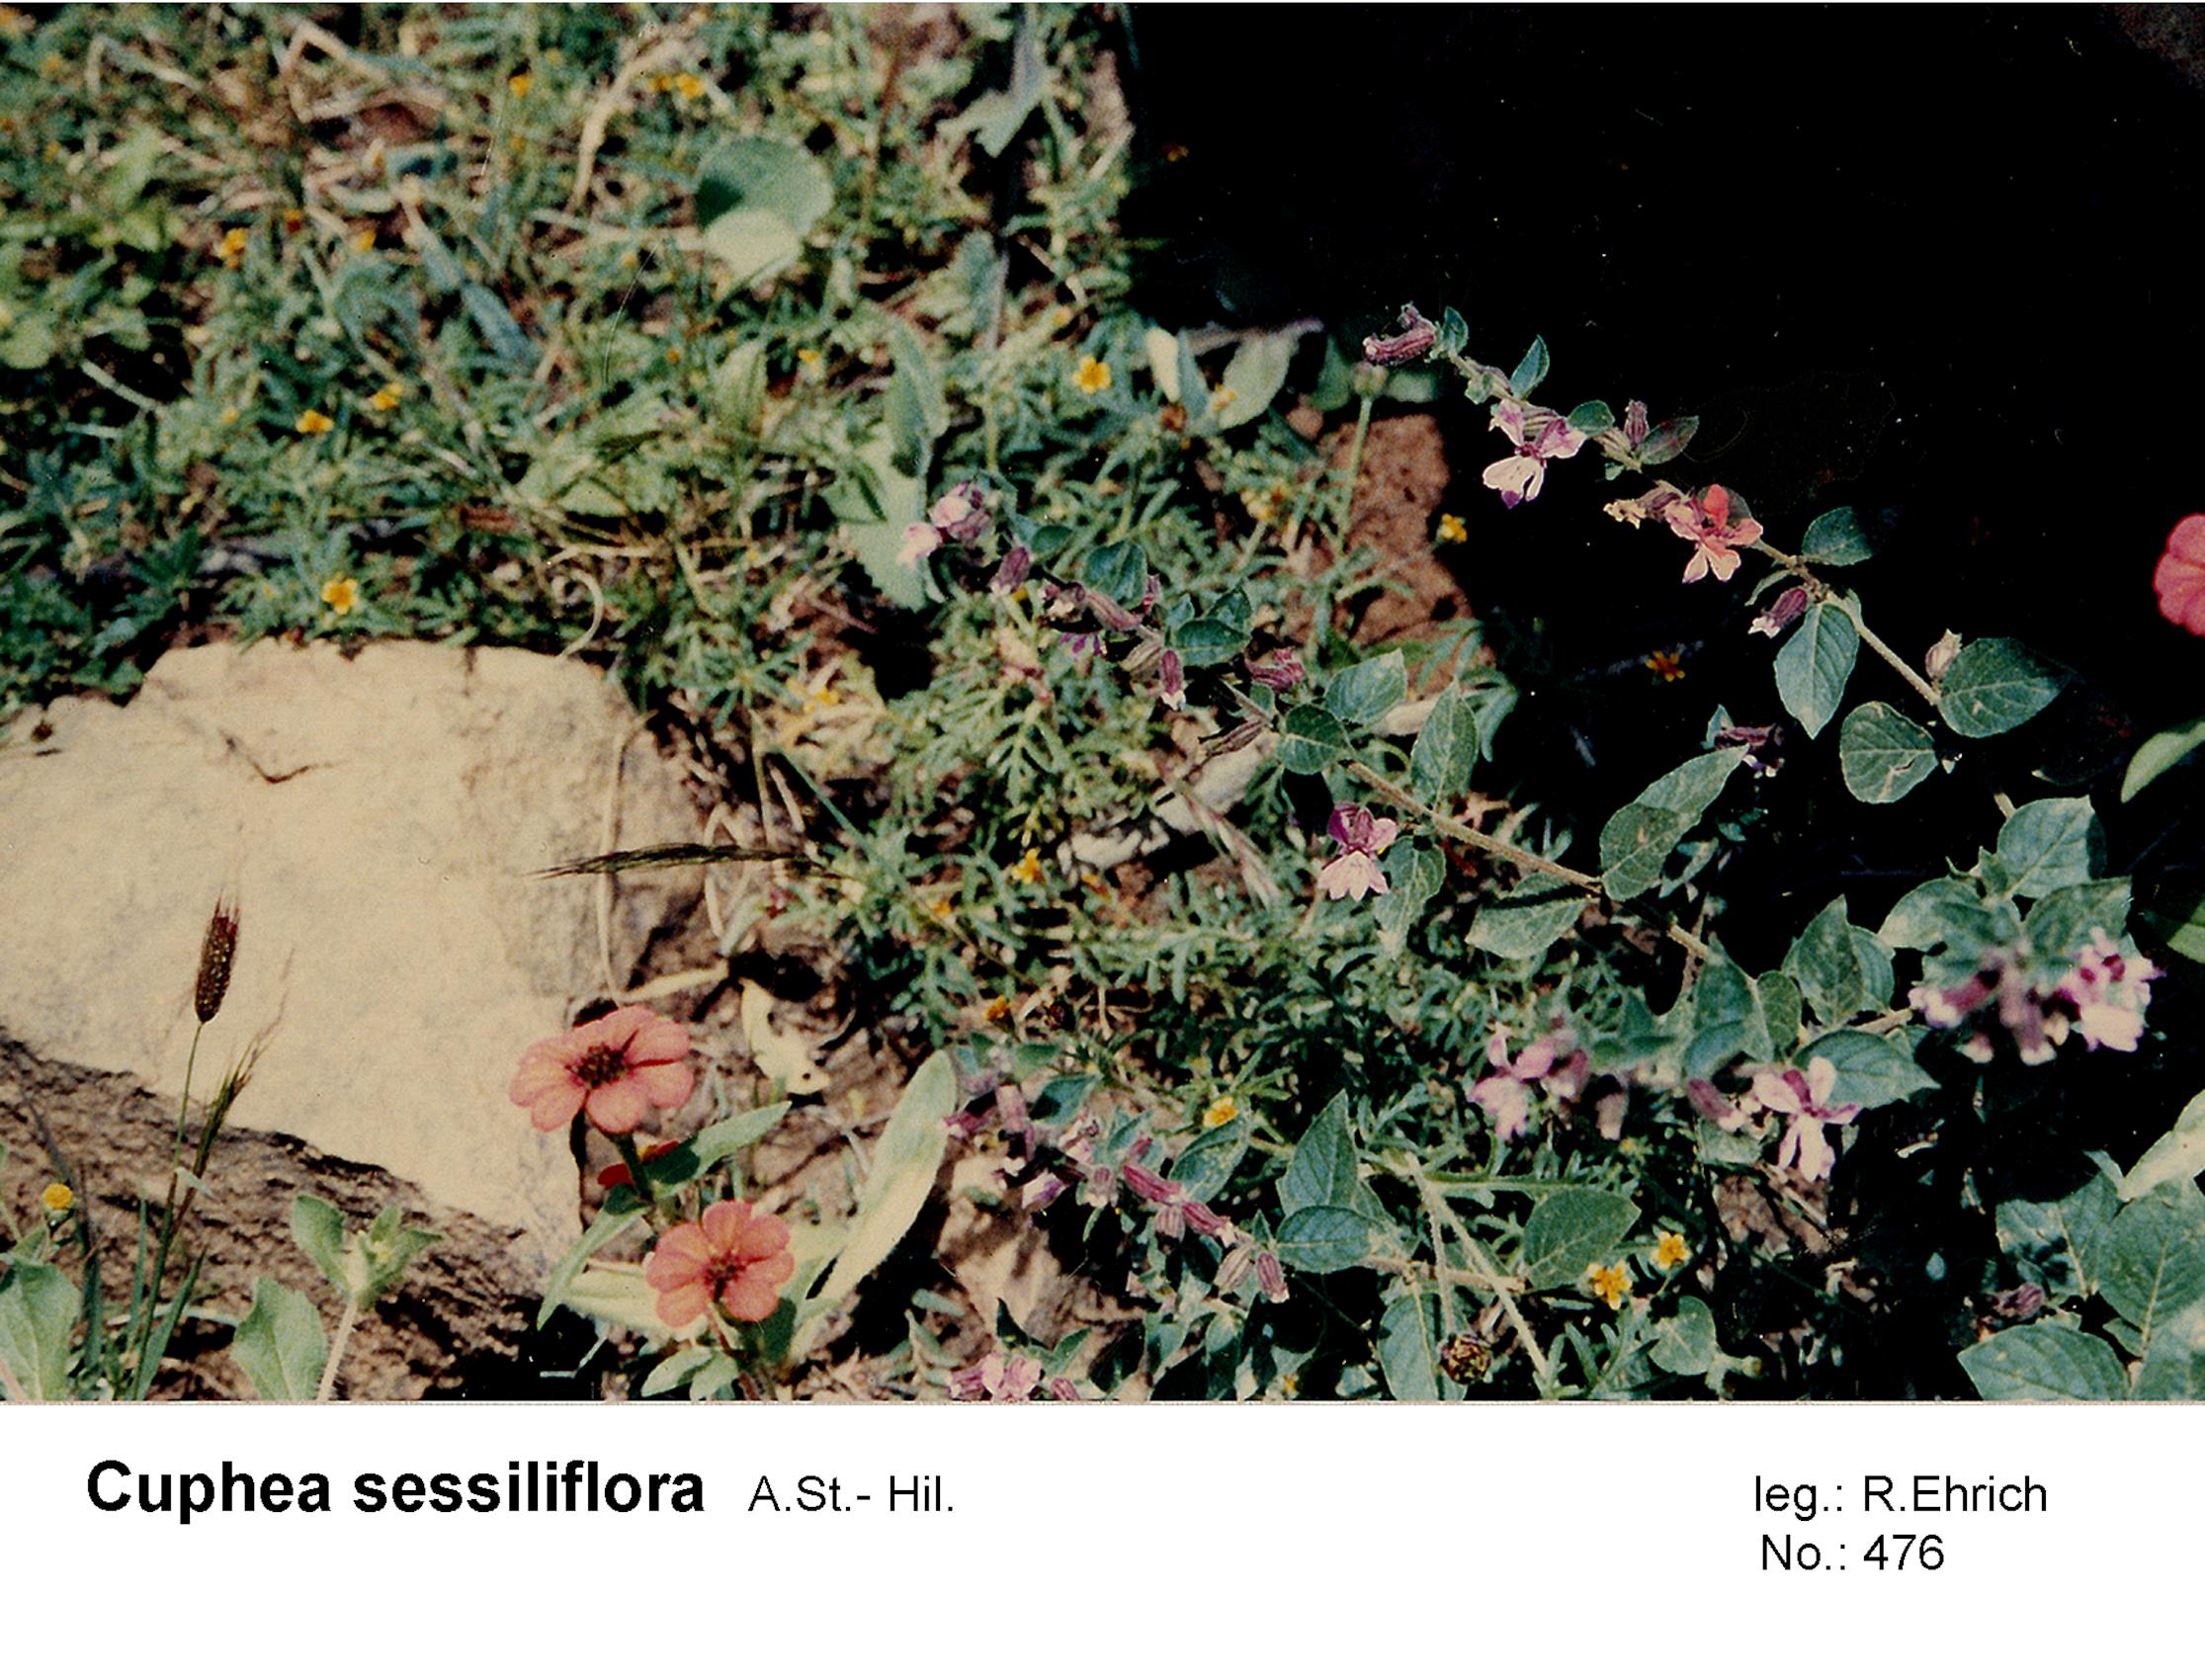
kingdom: Plantae
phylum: Tracheophyta
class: Magnoliopsida
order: Myrtales
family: Lythraceae
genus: Cuphea
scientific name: Cuphea sessiliflora
